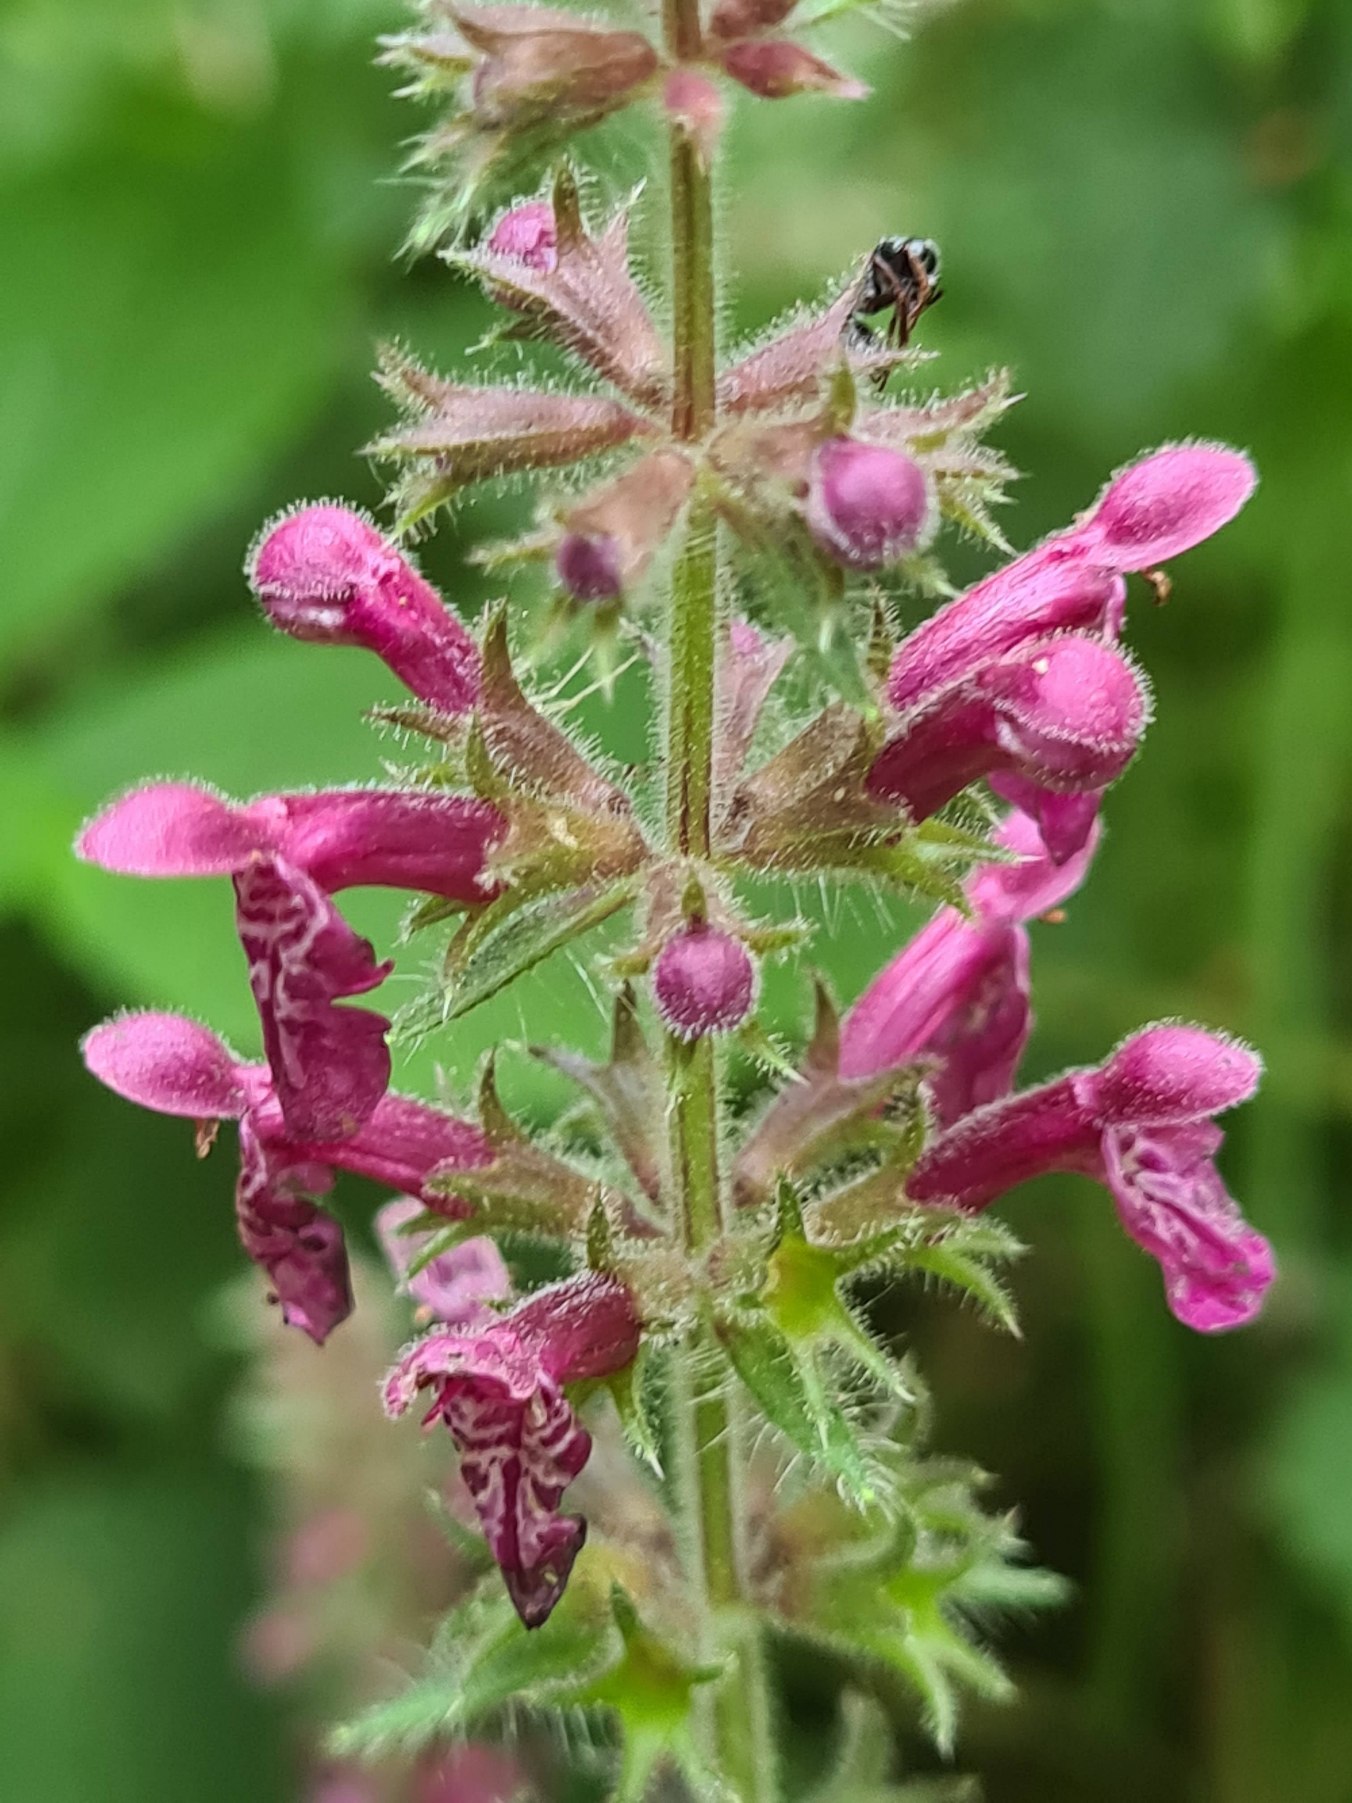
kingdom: Plantae
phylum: Tracheophyta
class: Magnoliopsida
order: Lamiales
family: Lamiaceae
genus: Stachys
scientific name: Stachys sylvatica
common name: Skov-galtetand
